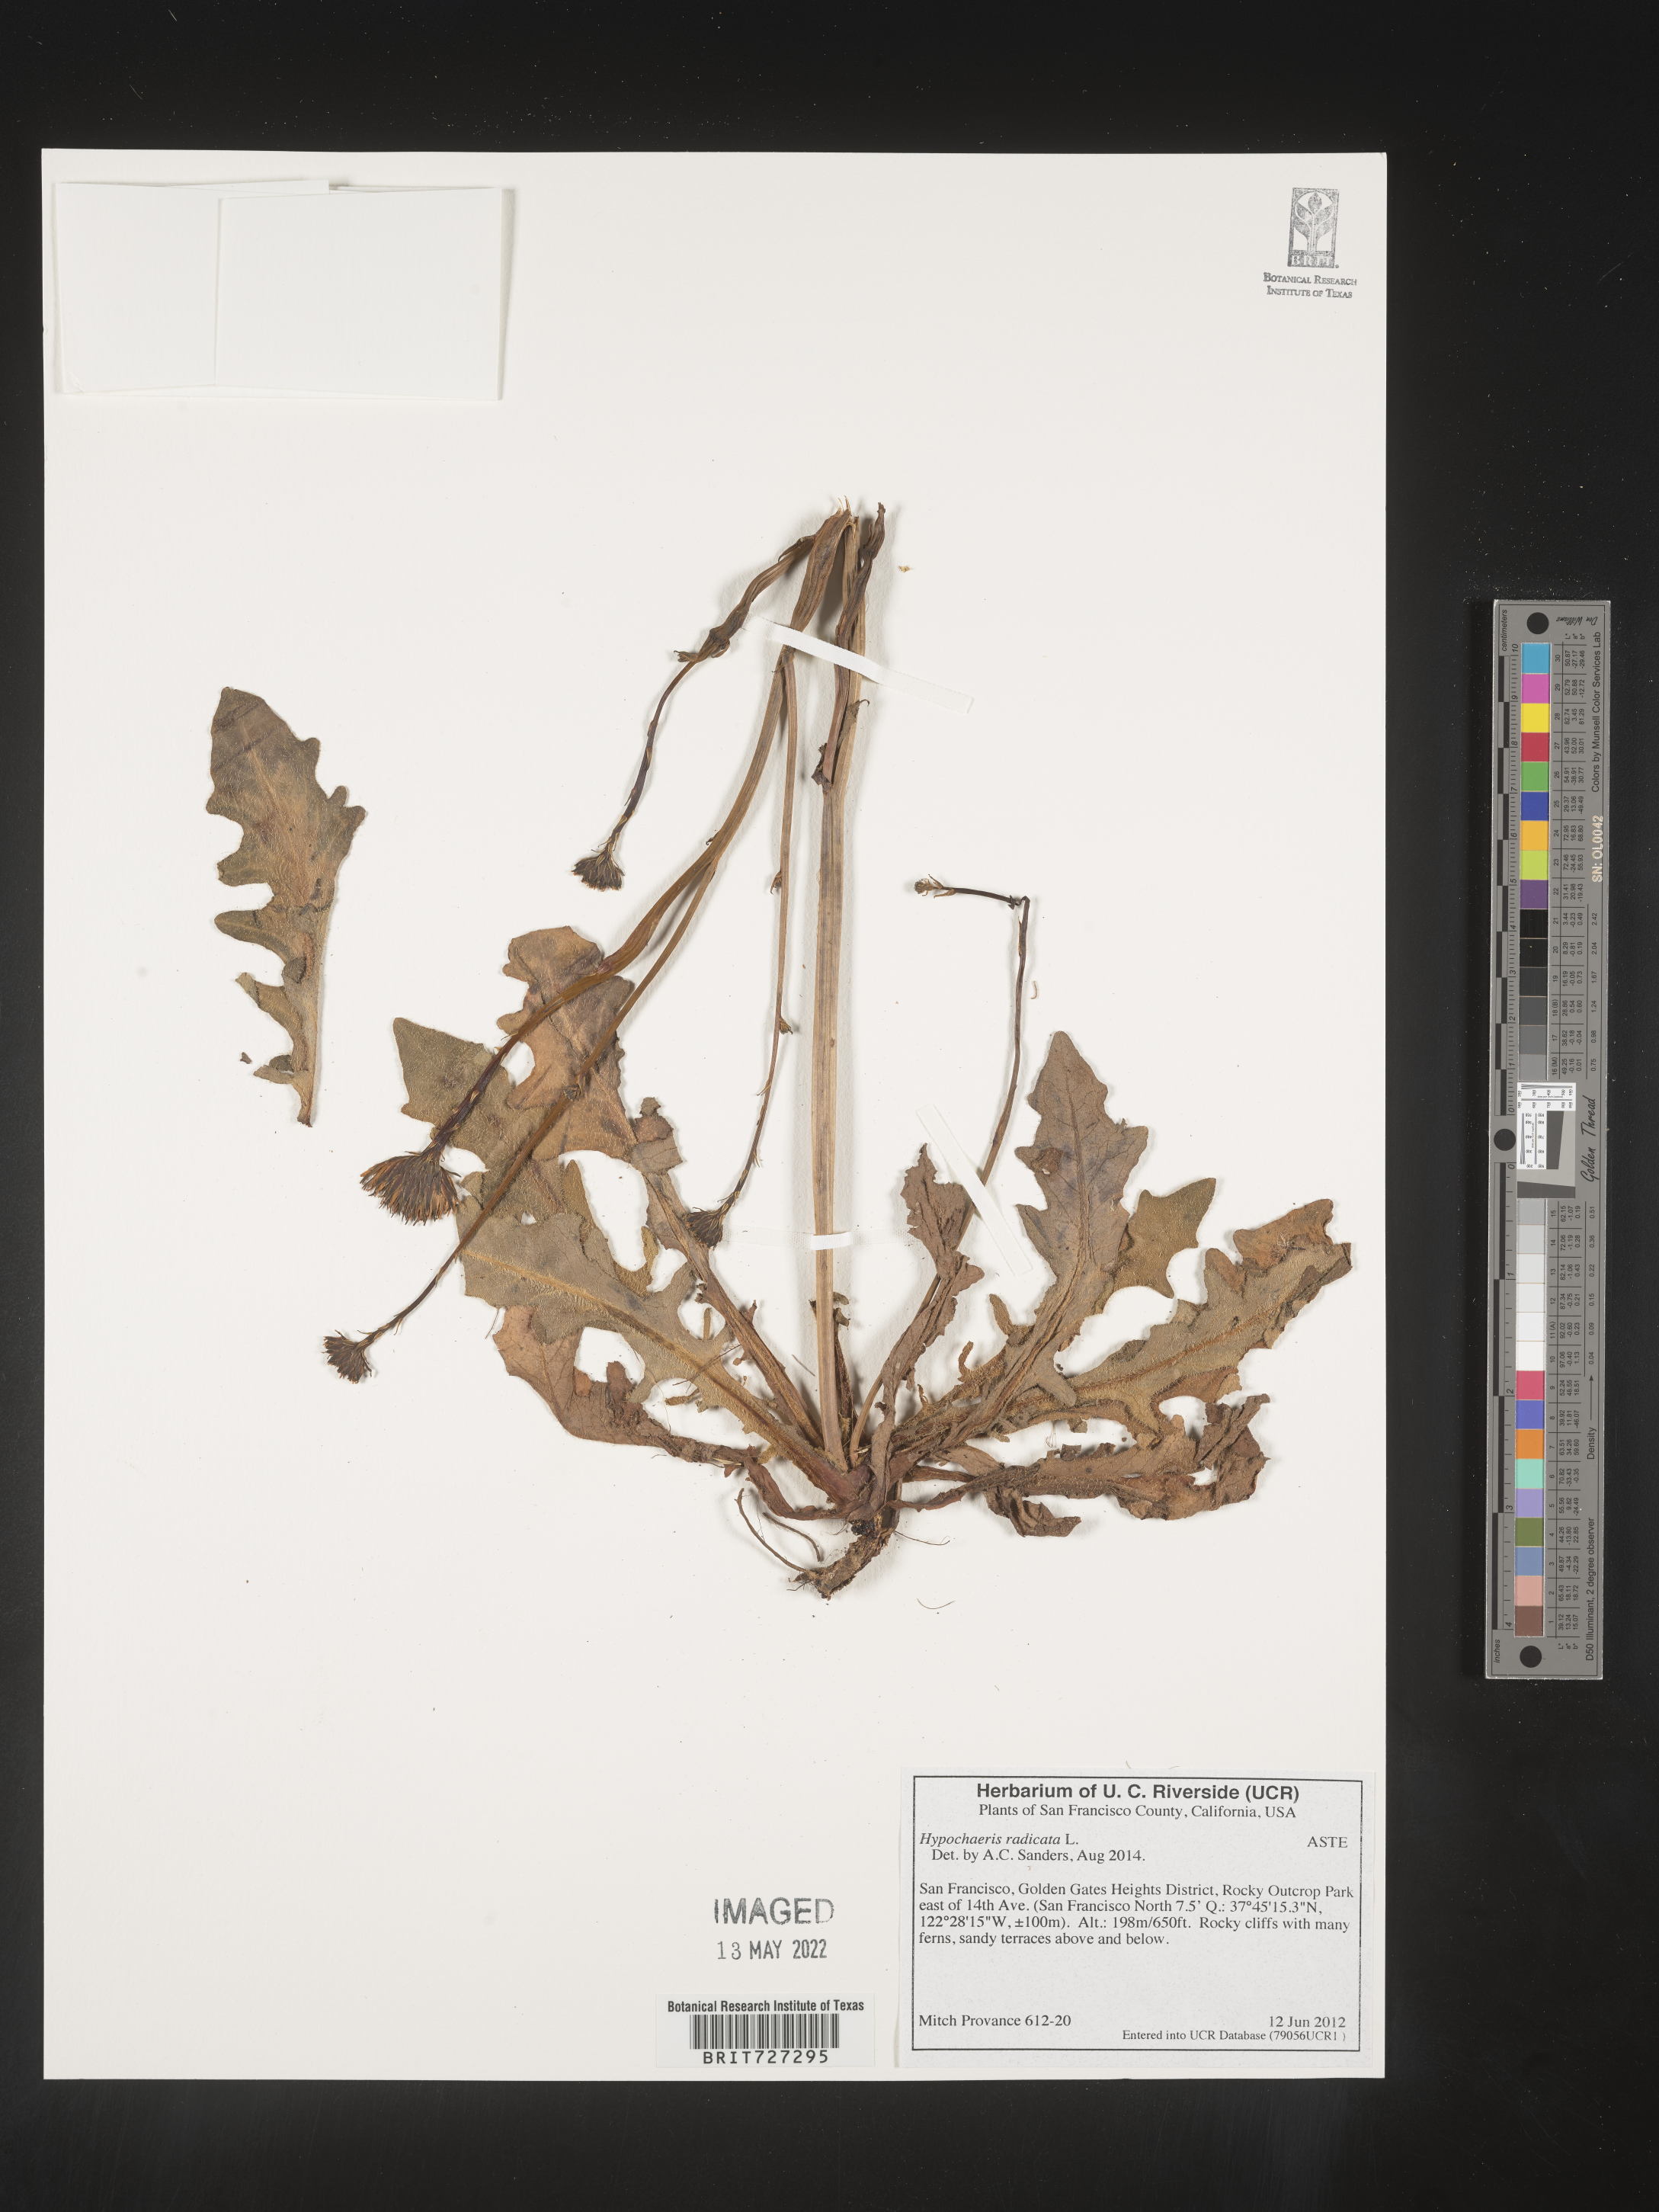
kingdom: Plantae
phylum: Tracheophyta
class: Magnoliopsida
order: Asterales
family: Asteraceae
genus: Hypochaeris
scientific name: Hypochaeris radicata
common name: Flatweed
